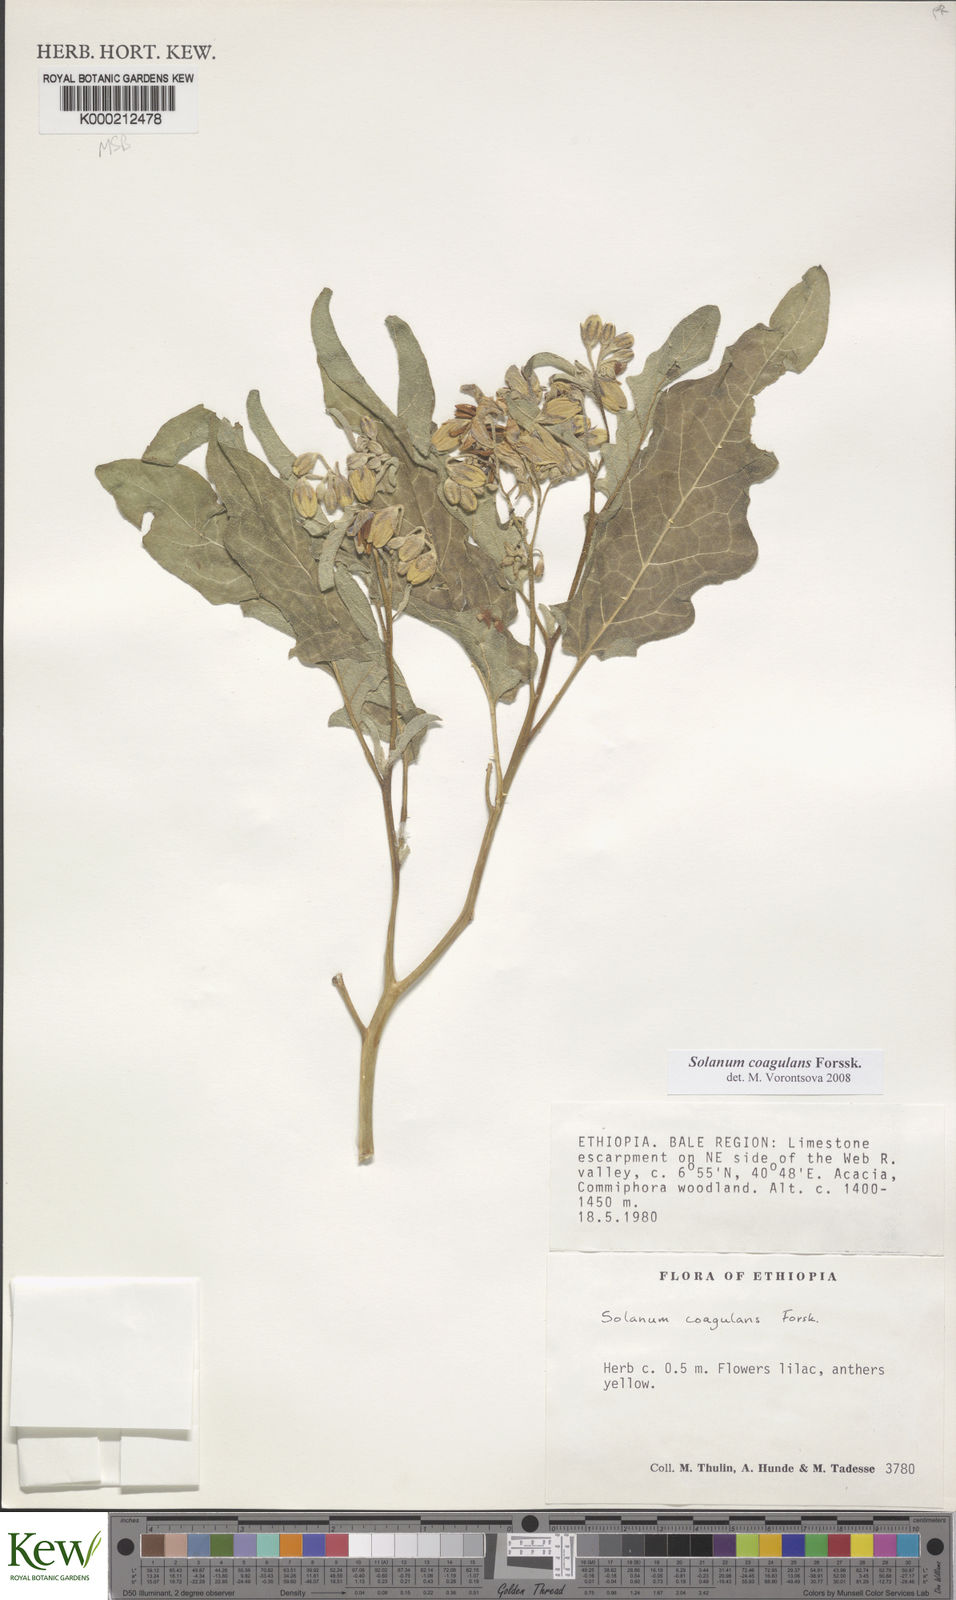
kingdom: Plantae
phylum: Tracheophyta
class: Magnoliopsida
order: Solanales
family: Solanaceae
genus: Solanum
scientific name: Solanum coagulans
